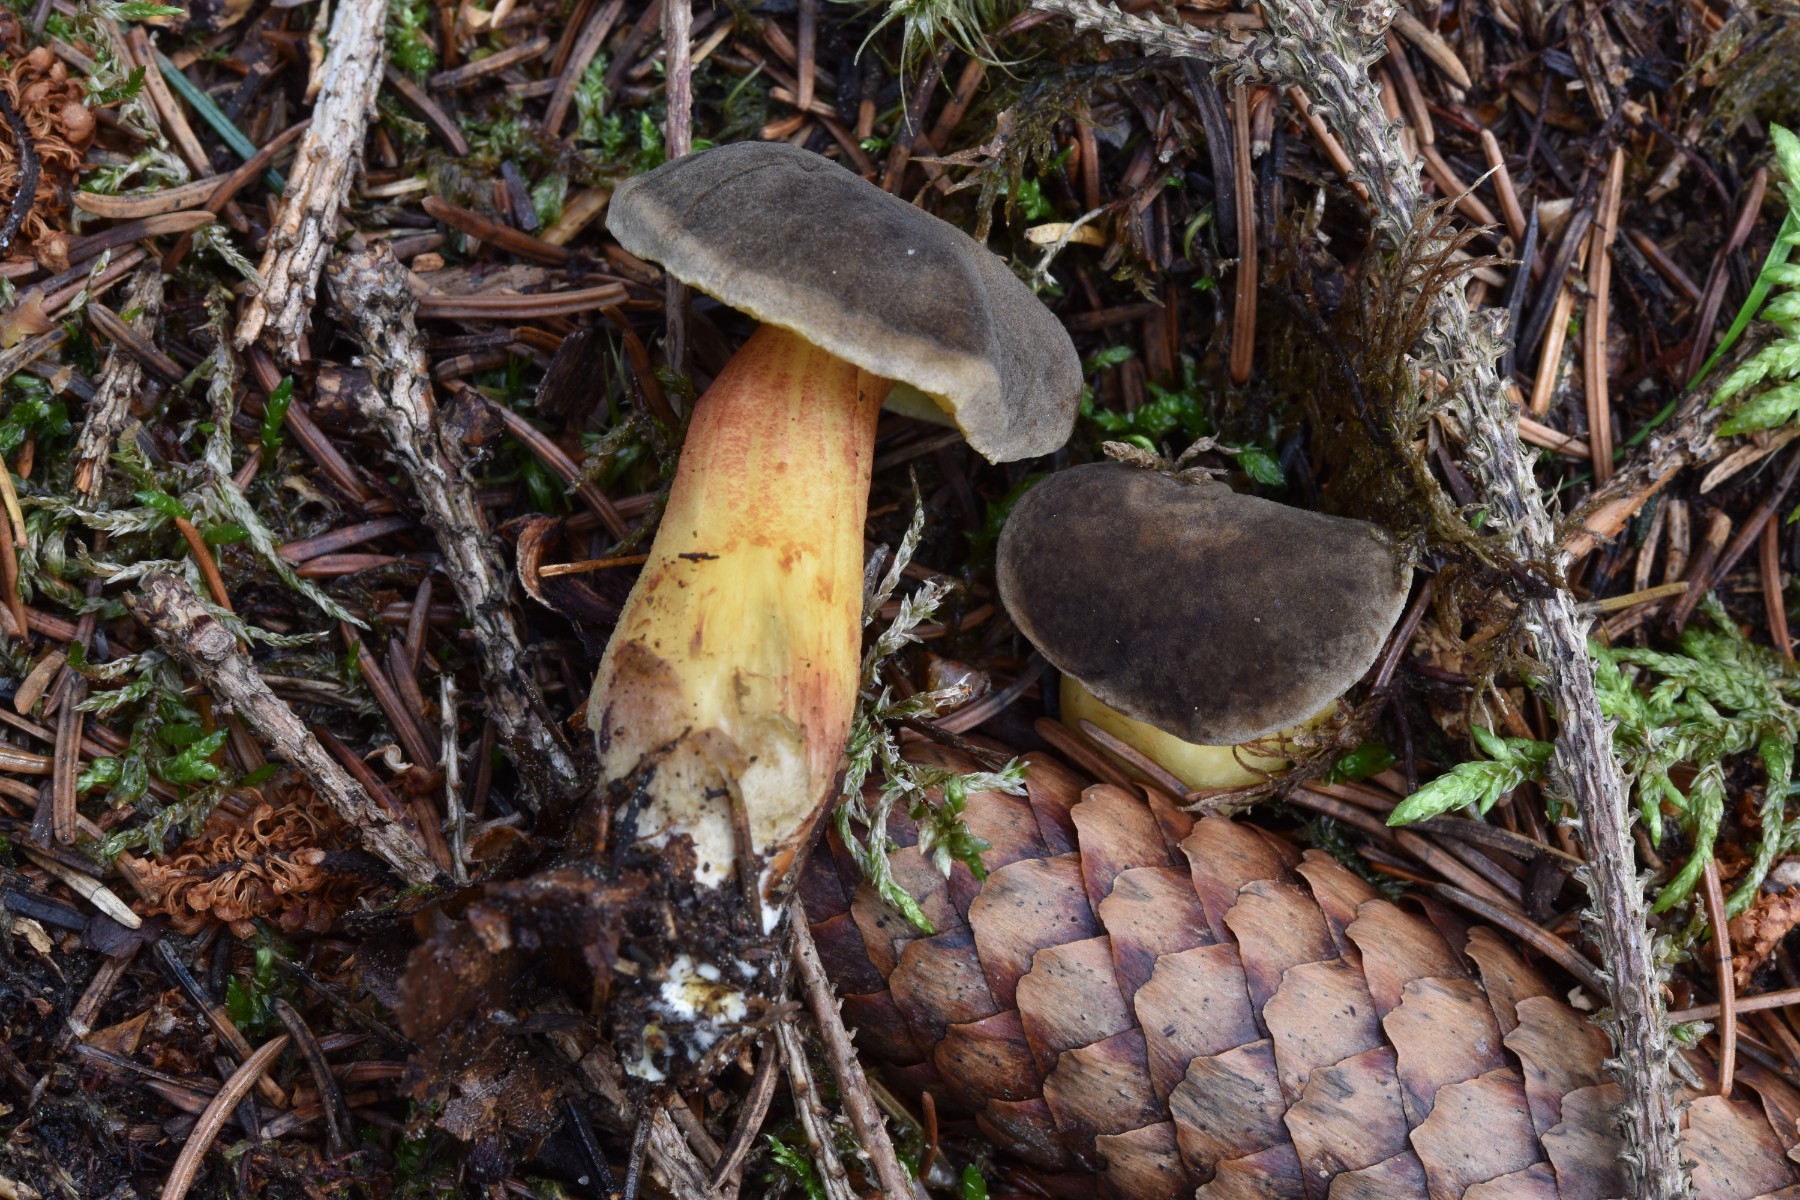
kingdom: Fungi
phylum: Basidiomycota
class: Agaricomycetes
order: Boletales
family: Boletaceae
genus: Xerocomellus
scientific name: Xerocomellus pruinatus
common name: dugget rørhat
